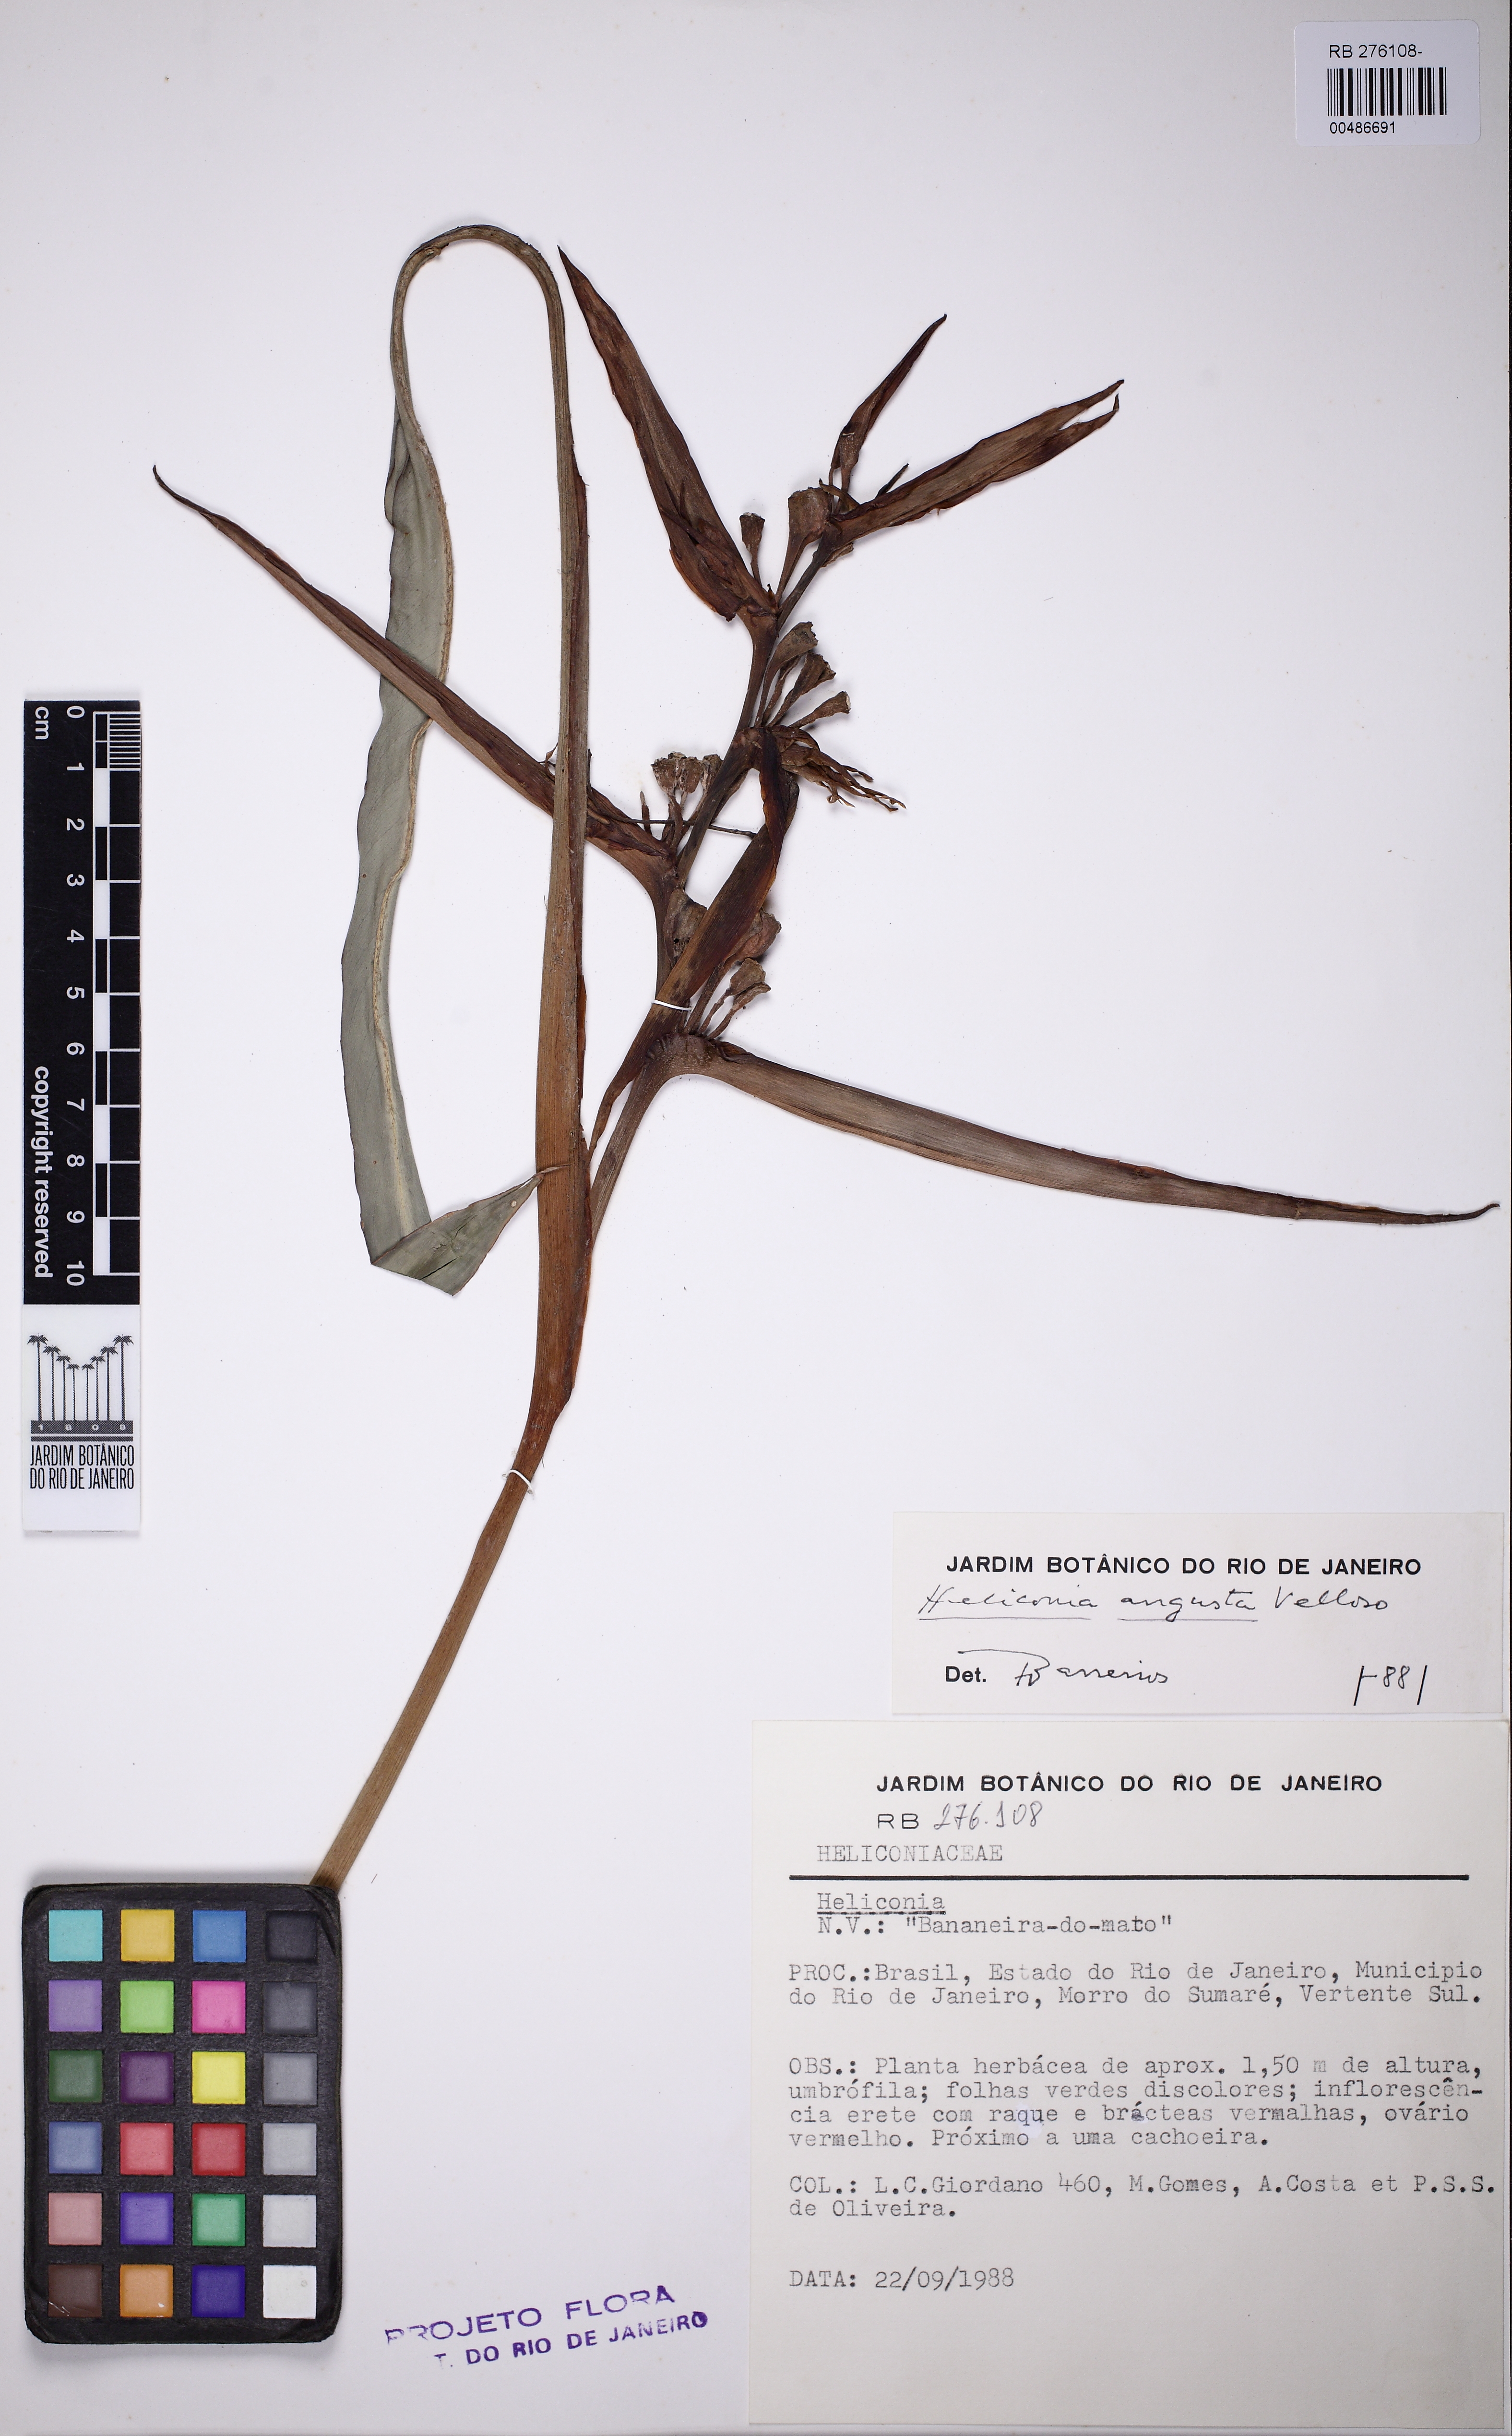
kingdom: Plantae
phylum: Tracheophyta
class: Liliopsida
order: Zingiberales
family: Heliconiaceae
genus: Heliconia
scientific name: Heliconia angusta
